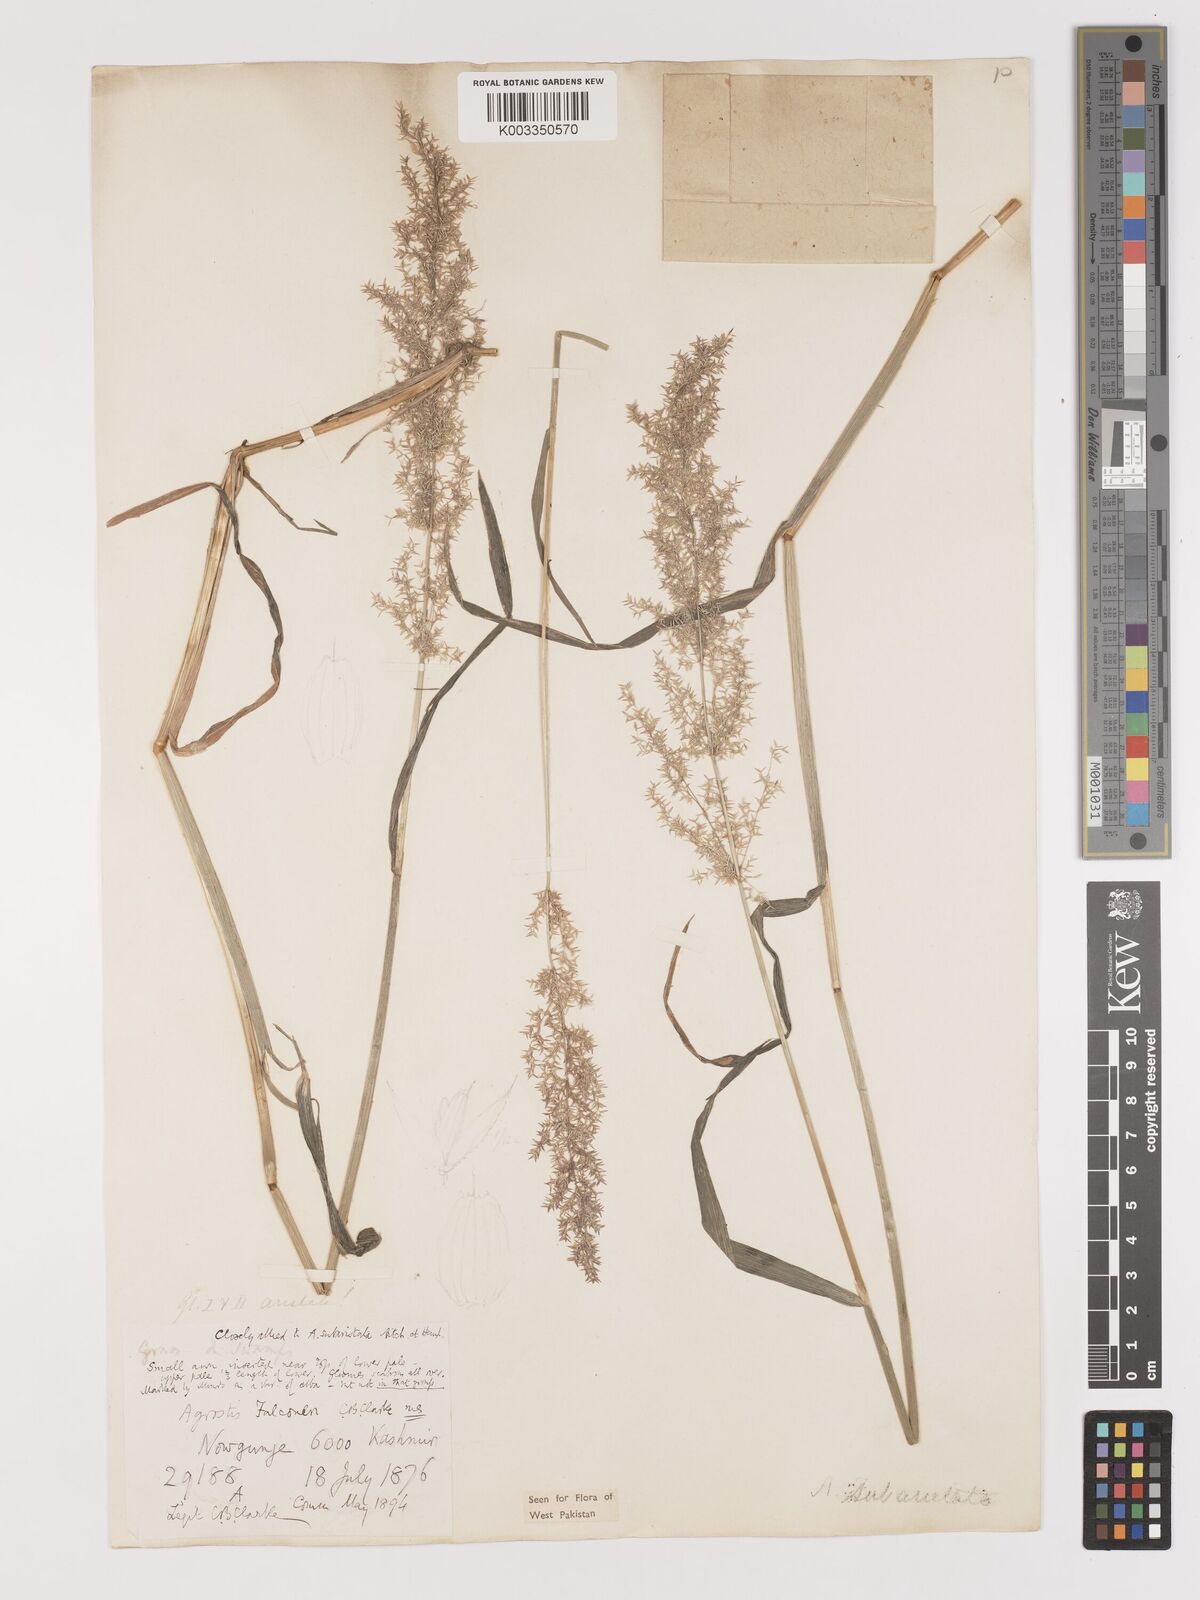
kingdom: Plantae
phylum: Tracheophyta
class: Liliopsida
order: Poales
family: Poaceae
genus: Agropogon
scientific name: Agropogon lutosus
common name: Coast agropogon
